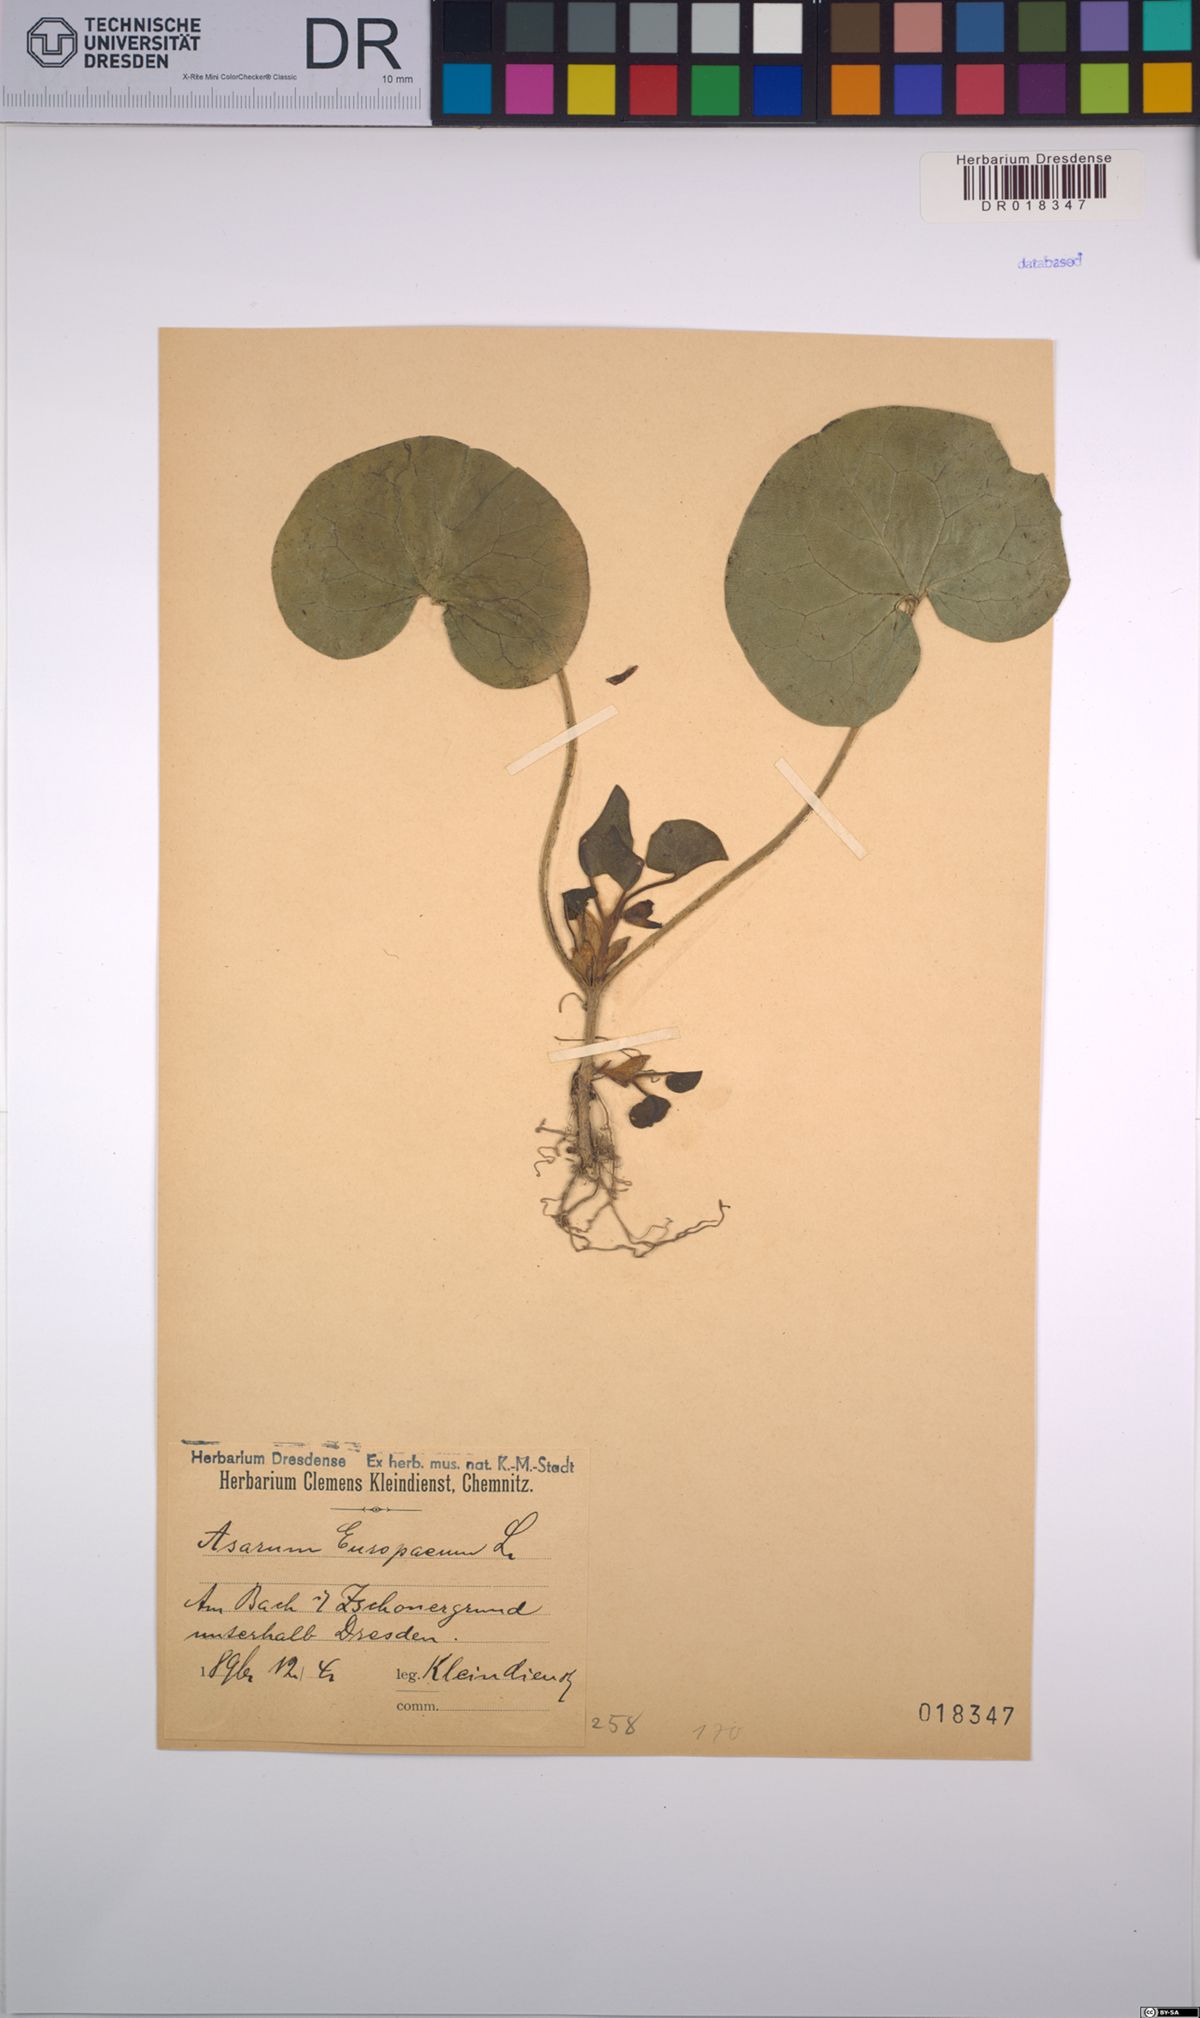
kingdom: Plantae
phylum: Tracheophyta
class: Magnoliopsida
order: Piperales
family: Aristolochiaceae
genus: Asarum
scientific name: Asarum europaeum
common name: Asarabacca
